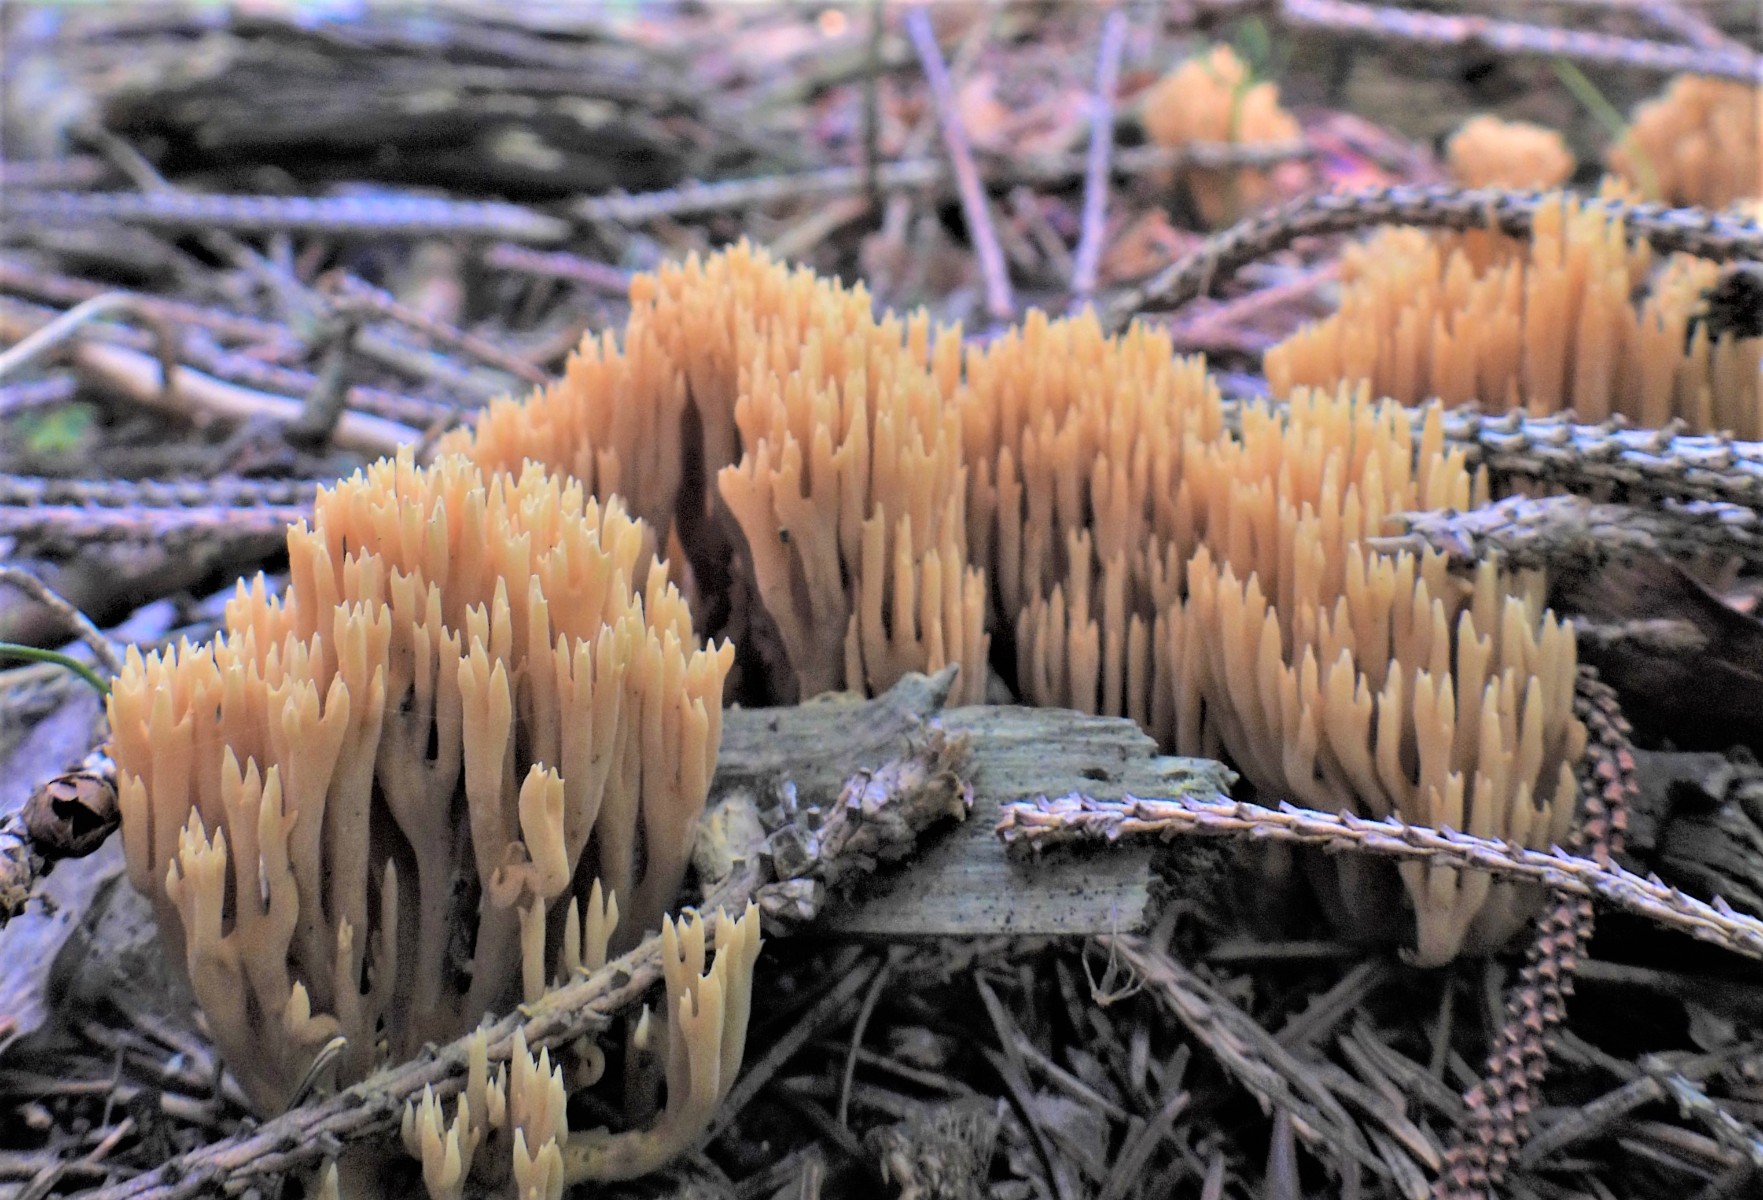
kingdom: Fungi
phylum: Basidiomycota
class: Agaricomycetes
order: Gomphales
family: Gomphaceae
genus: Phaeoclavulina
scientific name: Phaeoclavulina eumorpha
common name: gran-koralsvamp
